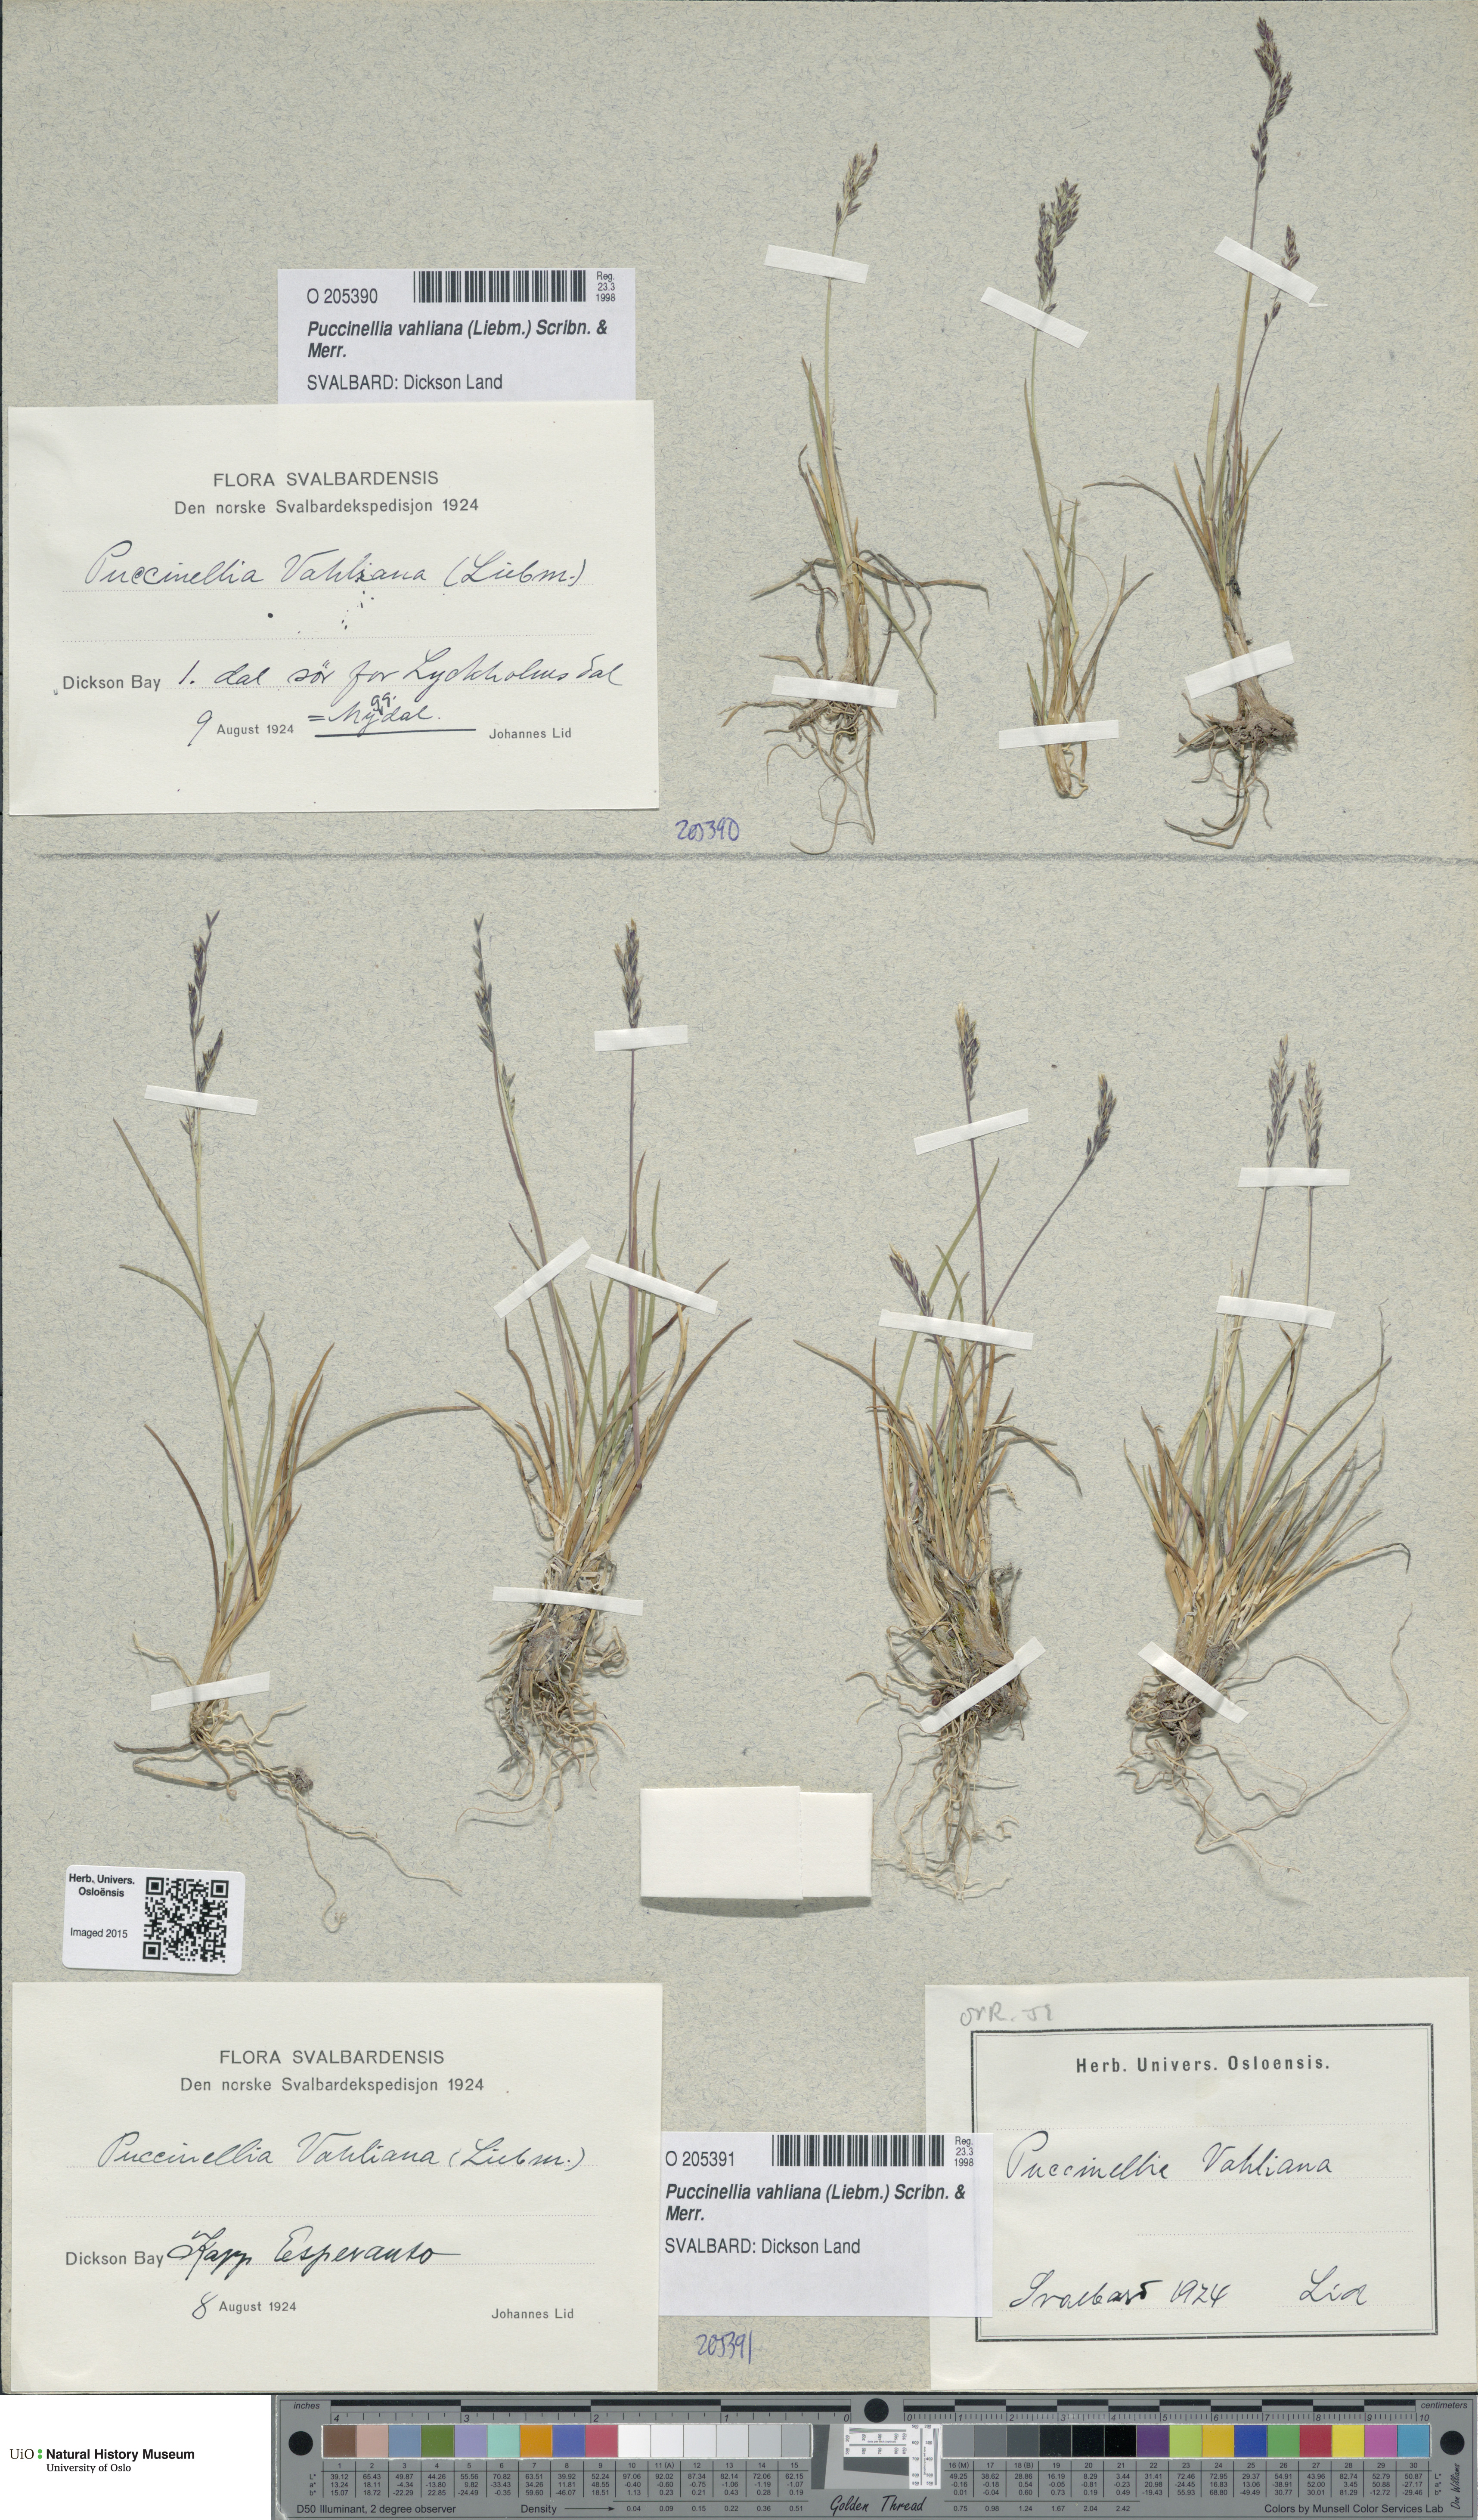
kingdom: Plantae
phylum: Tracheophyta
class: Liliopsida
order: Poales
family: Poaceae
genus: Puccinellia
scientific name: Puccinellia vahliana
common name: Vahl's alkaligrass
